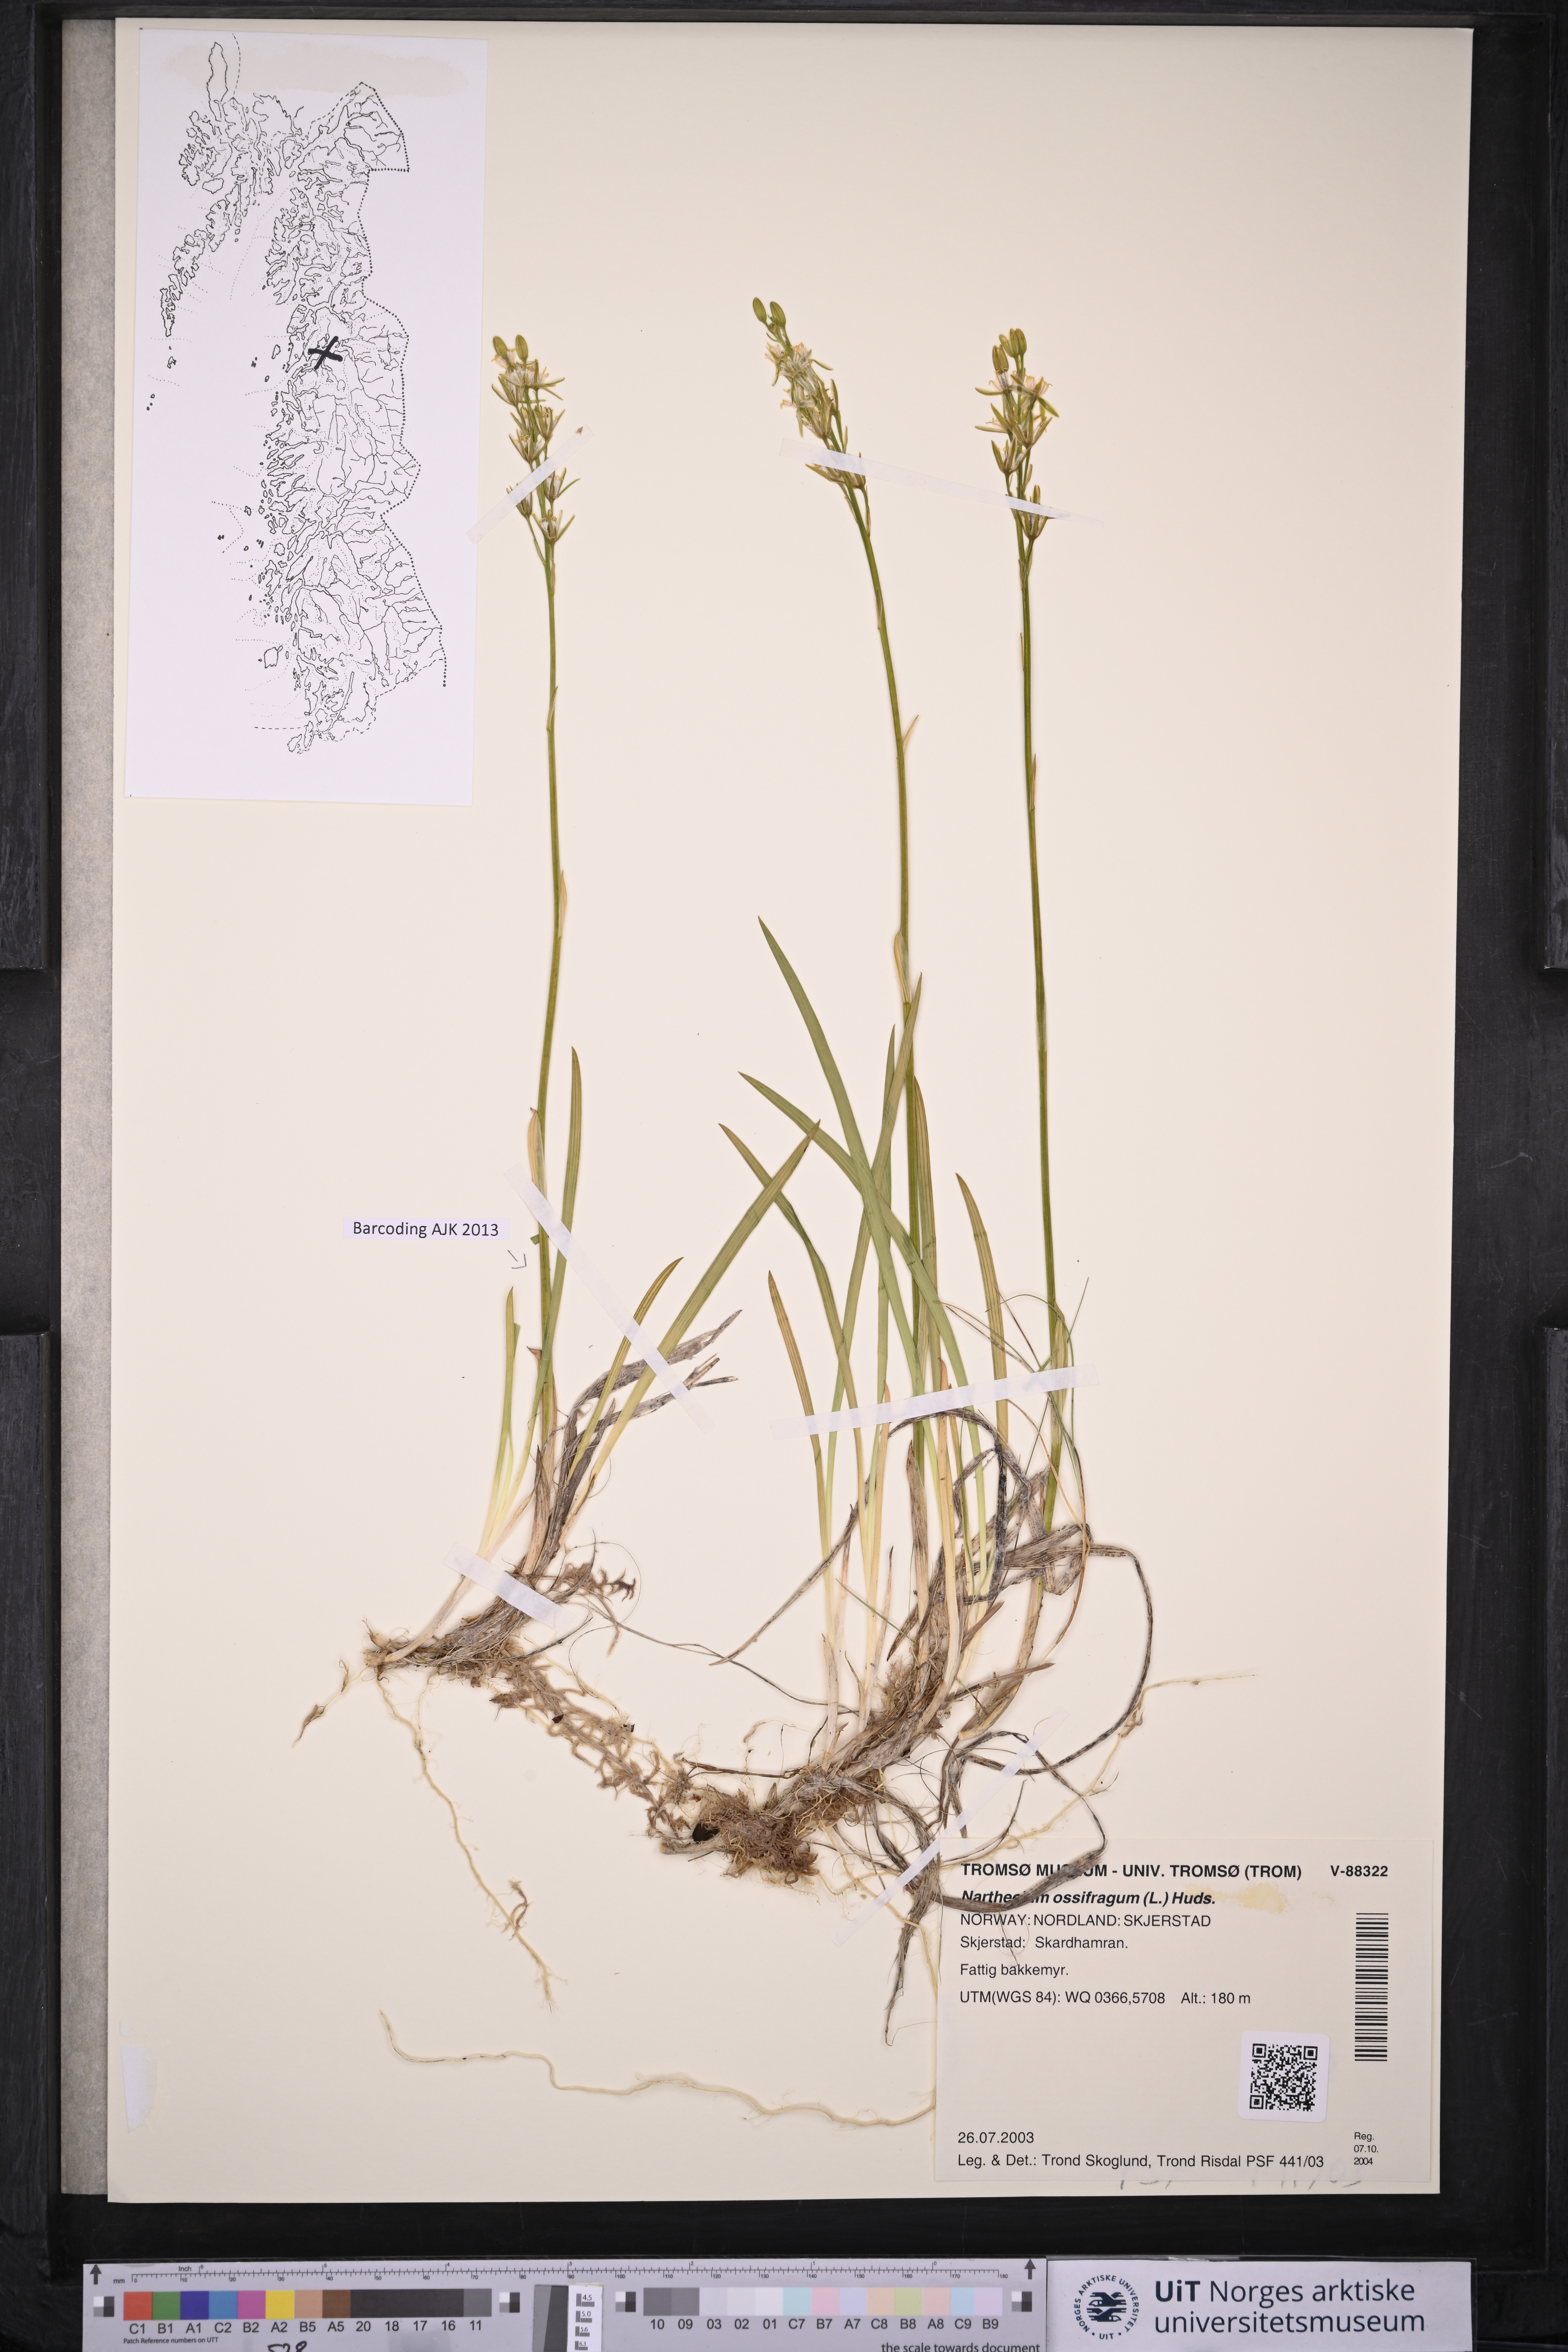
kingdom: Plantae
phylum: Tracheophyta
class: Liliopsida
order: Dioscoreales
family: Nartheciaceae
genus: Narthecium
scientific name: Narthecium ossifragum
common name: Bog asphodel
